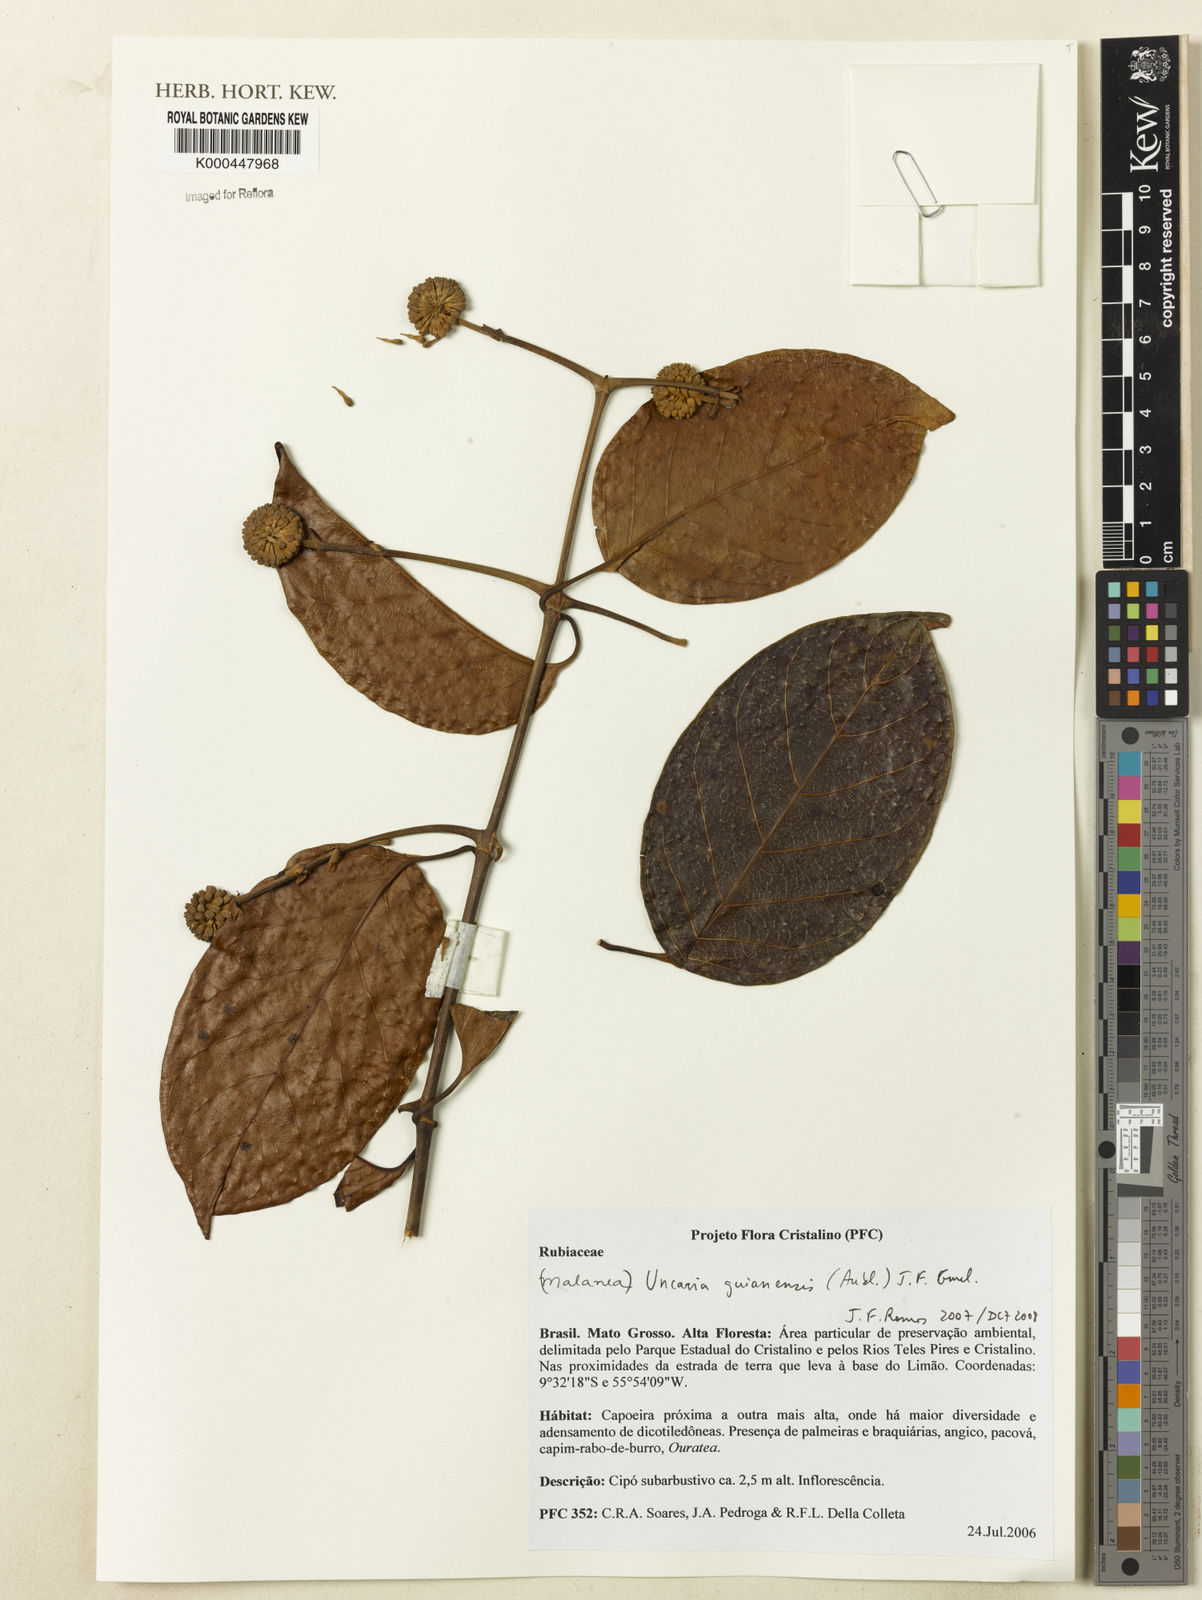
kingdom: Plantae
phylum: Tracheophyta
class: Magnoliopsida
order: Gentianales
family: Rubiaceae
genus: Uncaria
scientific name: Uncaria guianensis
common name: Cat's-claw
